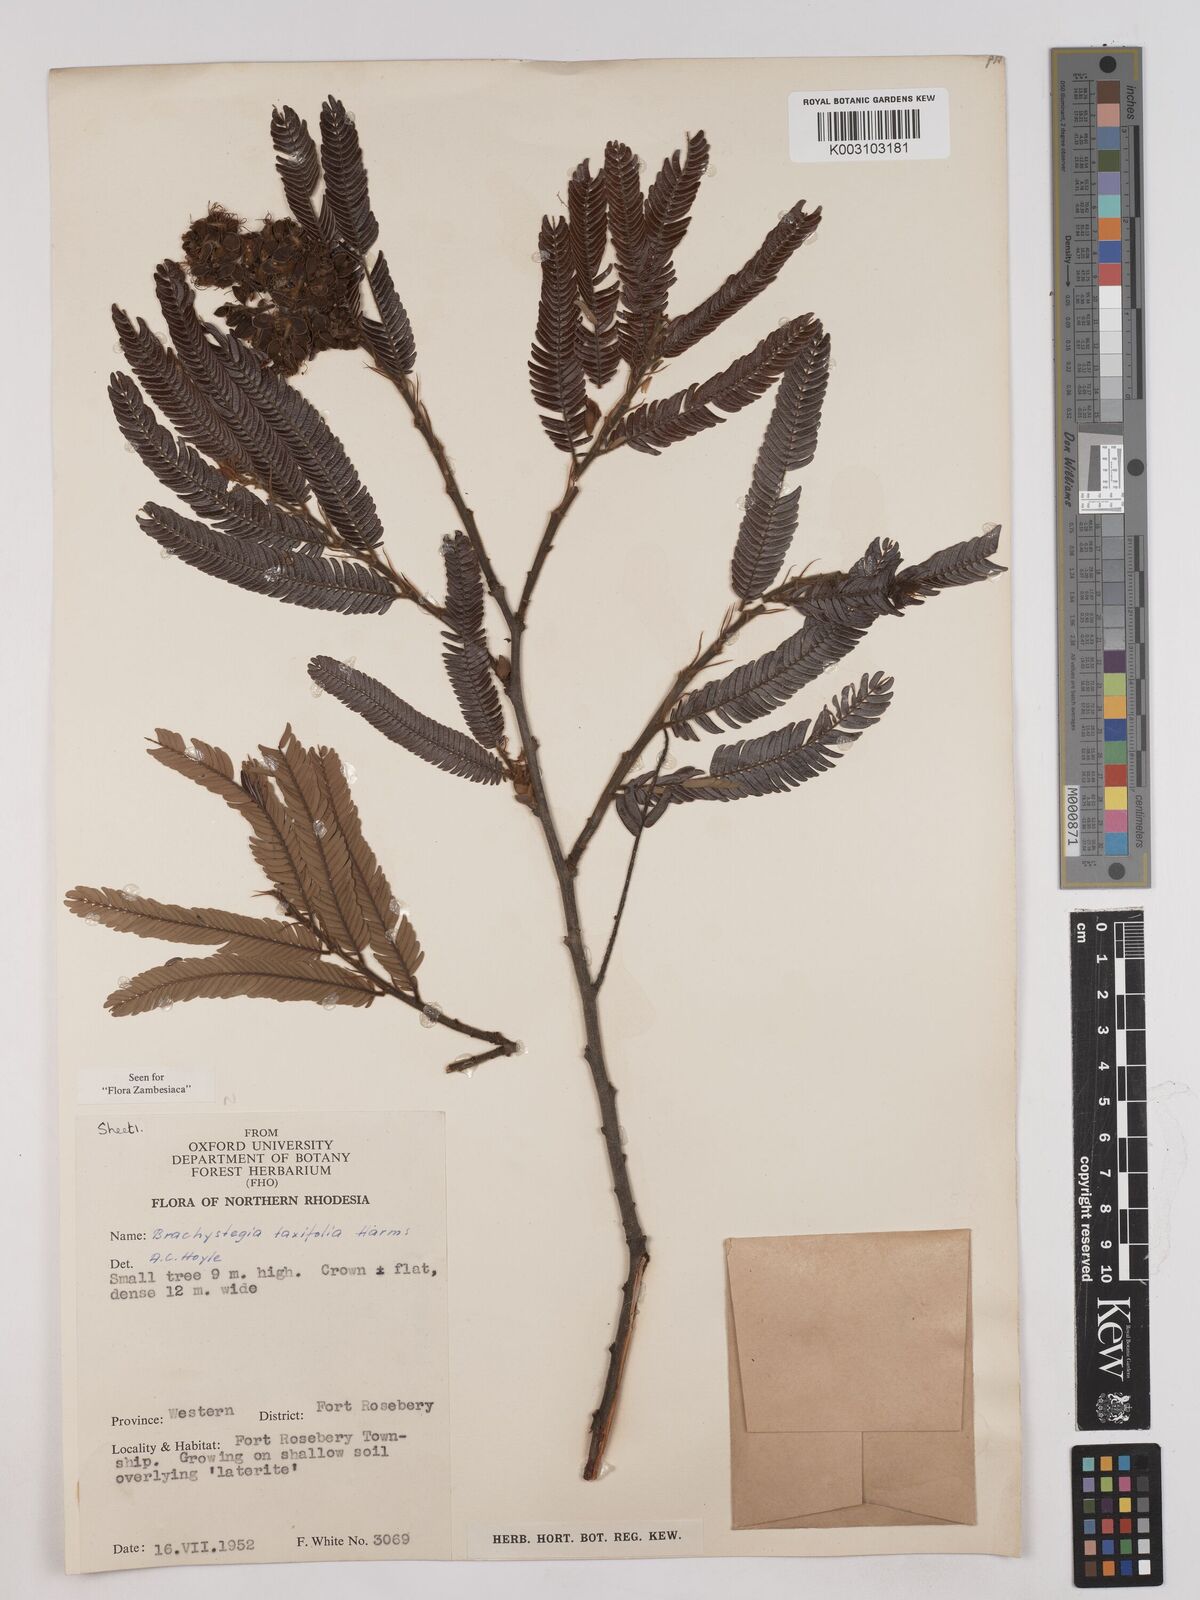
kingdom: Plantae
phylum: Tracheophyta
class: Magnoliopsida
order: Fabales
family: Fabaceae
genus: Brachystegia
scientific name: Brachystegia taxifolia
